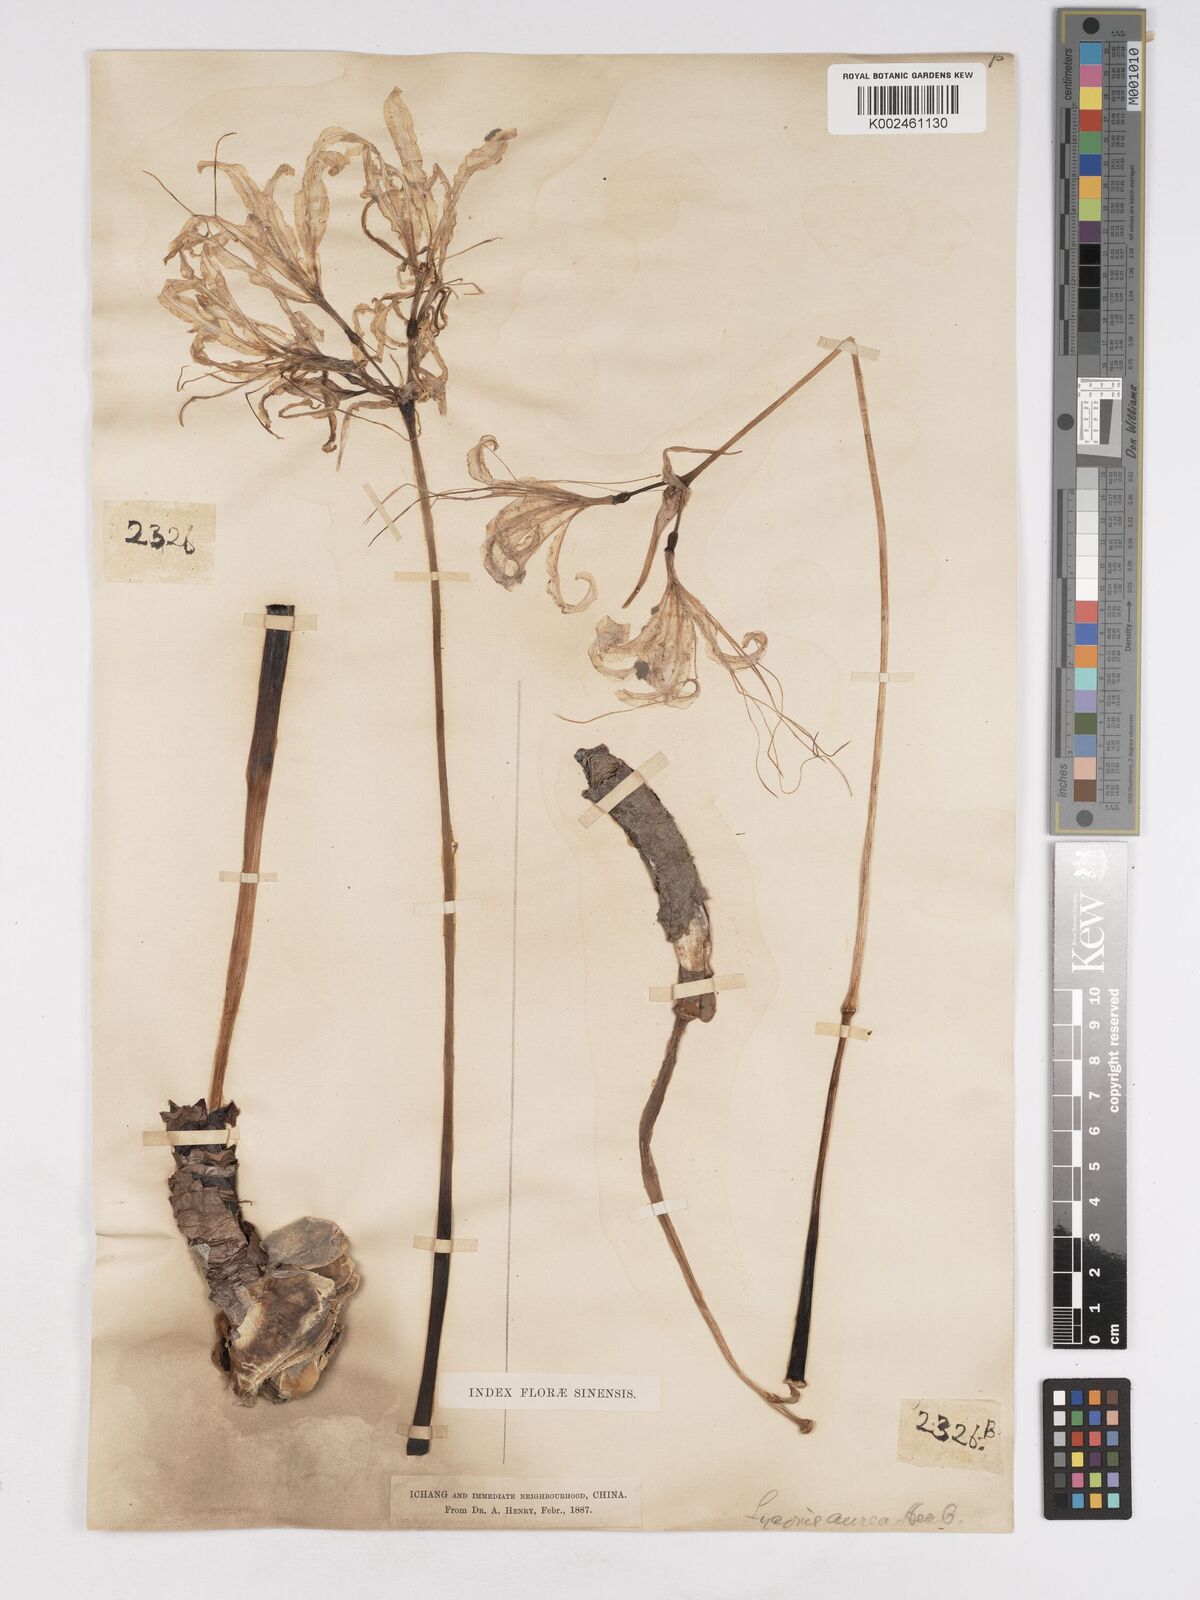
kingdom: Plantae
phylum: Tracheophyta
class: Liliopsida
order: Asparagales
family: Amaryllidaceae
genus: Lycoris
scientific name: Lycoris aurea
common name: Golden hurricane-lily
